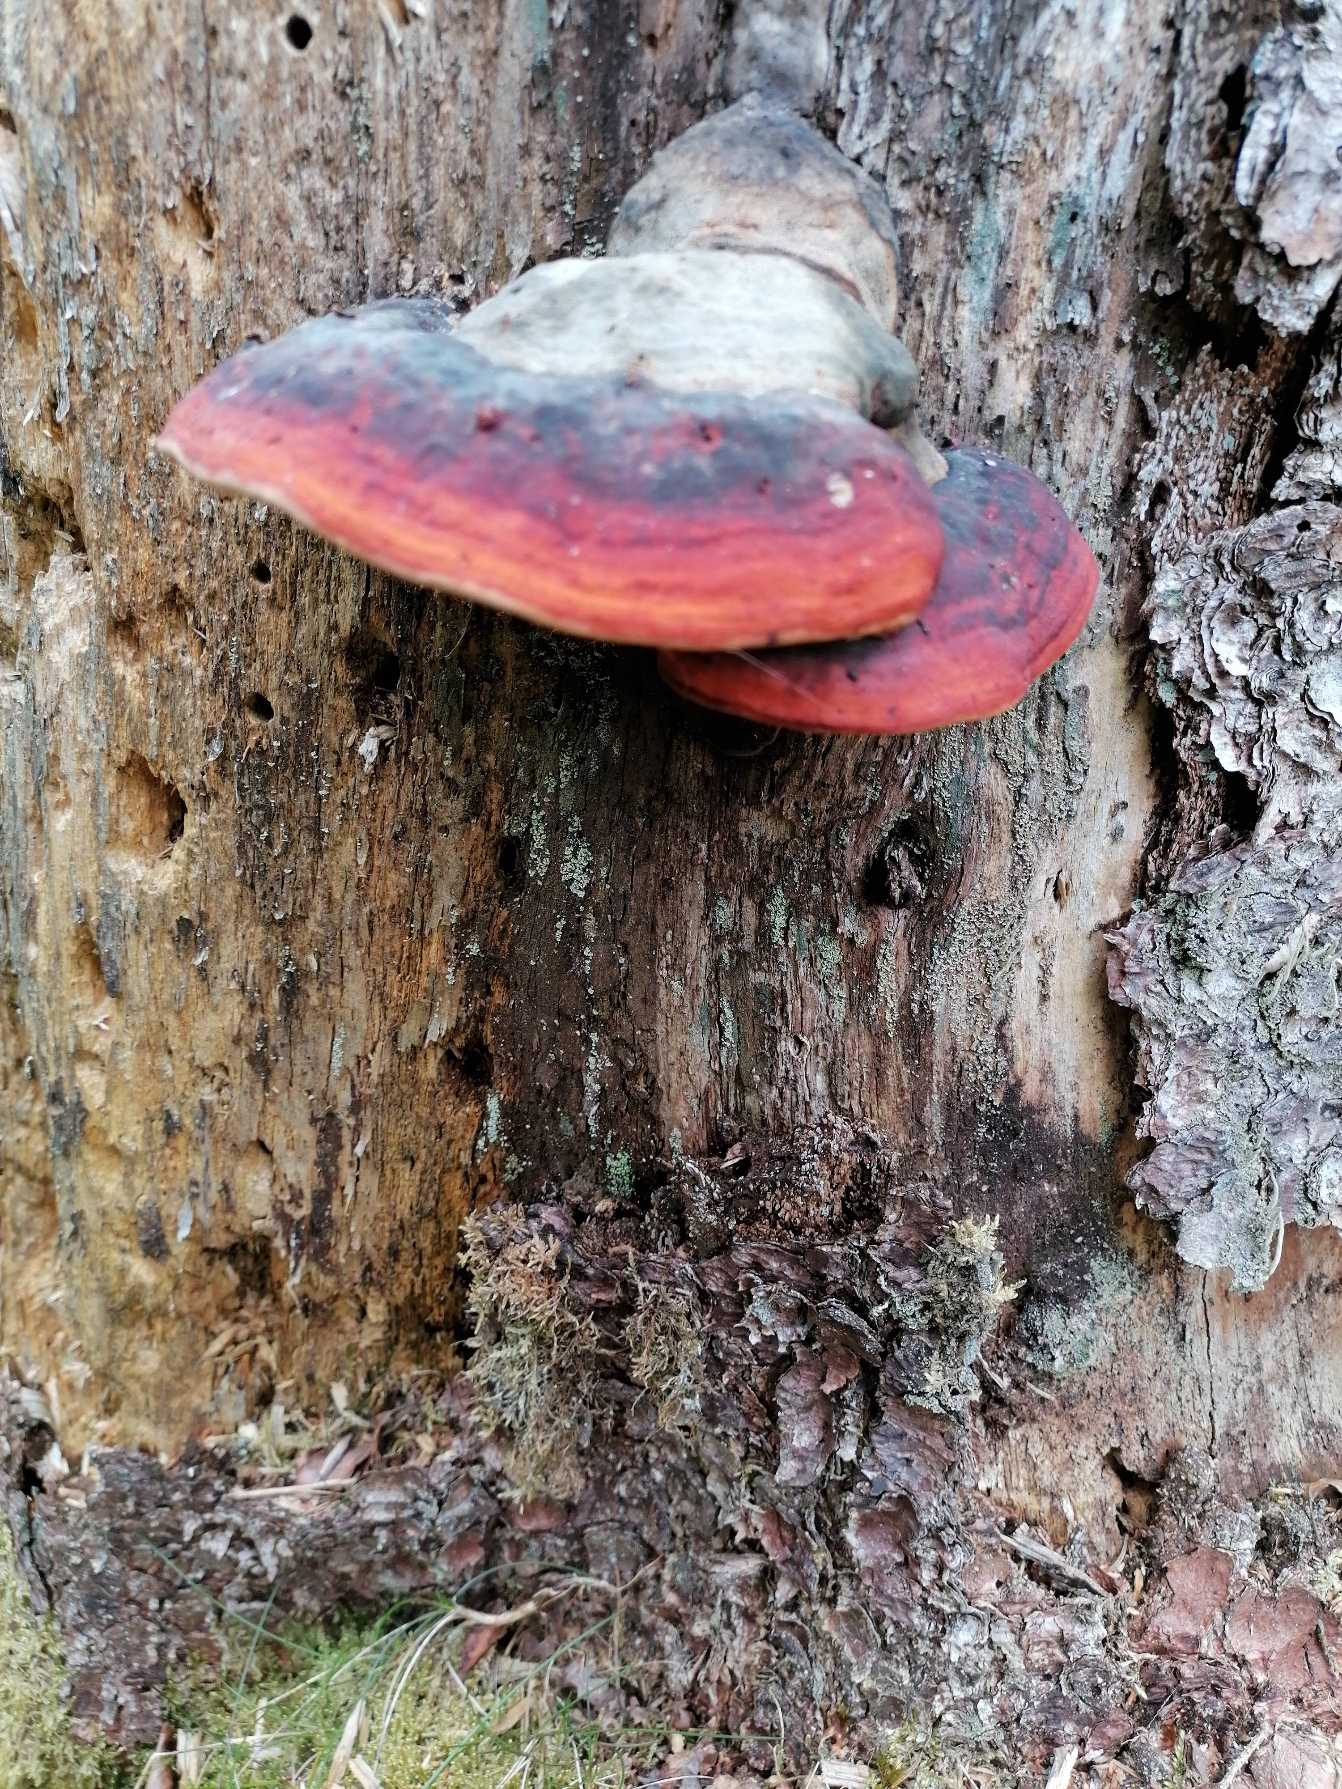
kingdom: Fungi
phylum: Basidiomycota
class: Agaricomycetes
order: Polyporales
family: Fomitopsidaceae
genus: Fomitopsis
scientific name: Fomitopsis pinicola
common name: Randbæltet hovporesvamp
